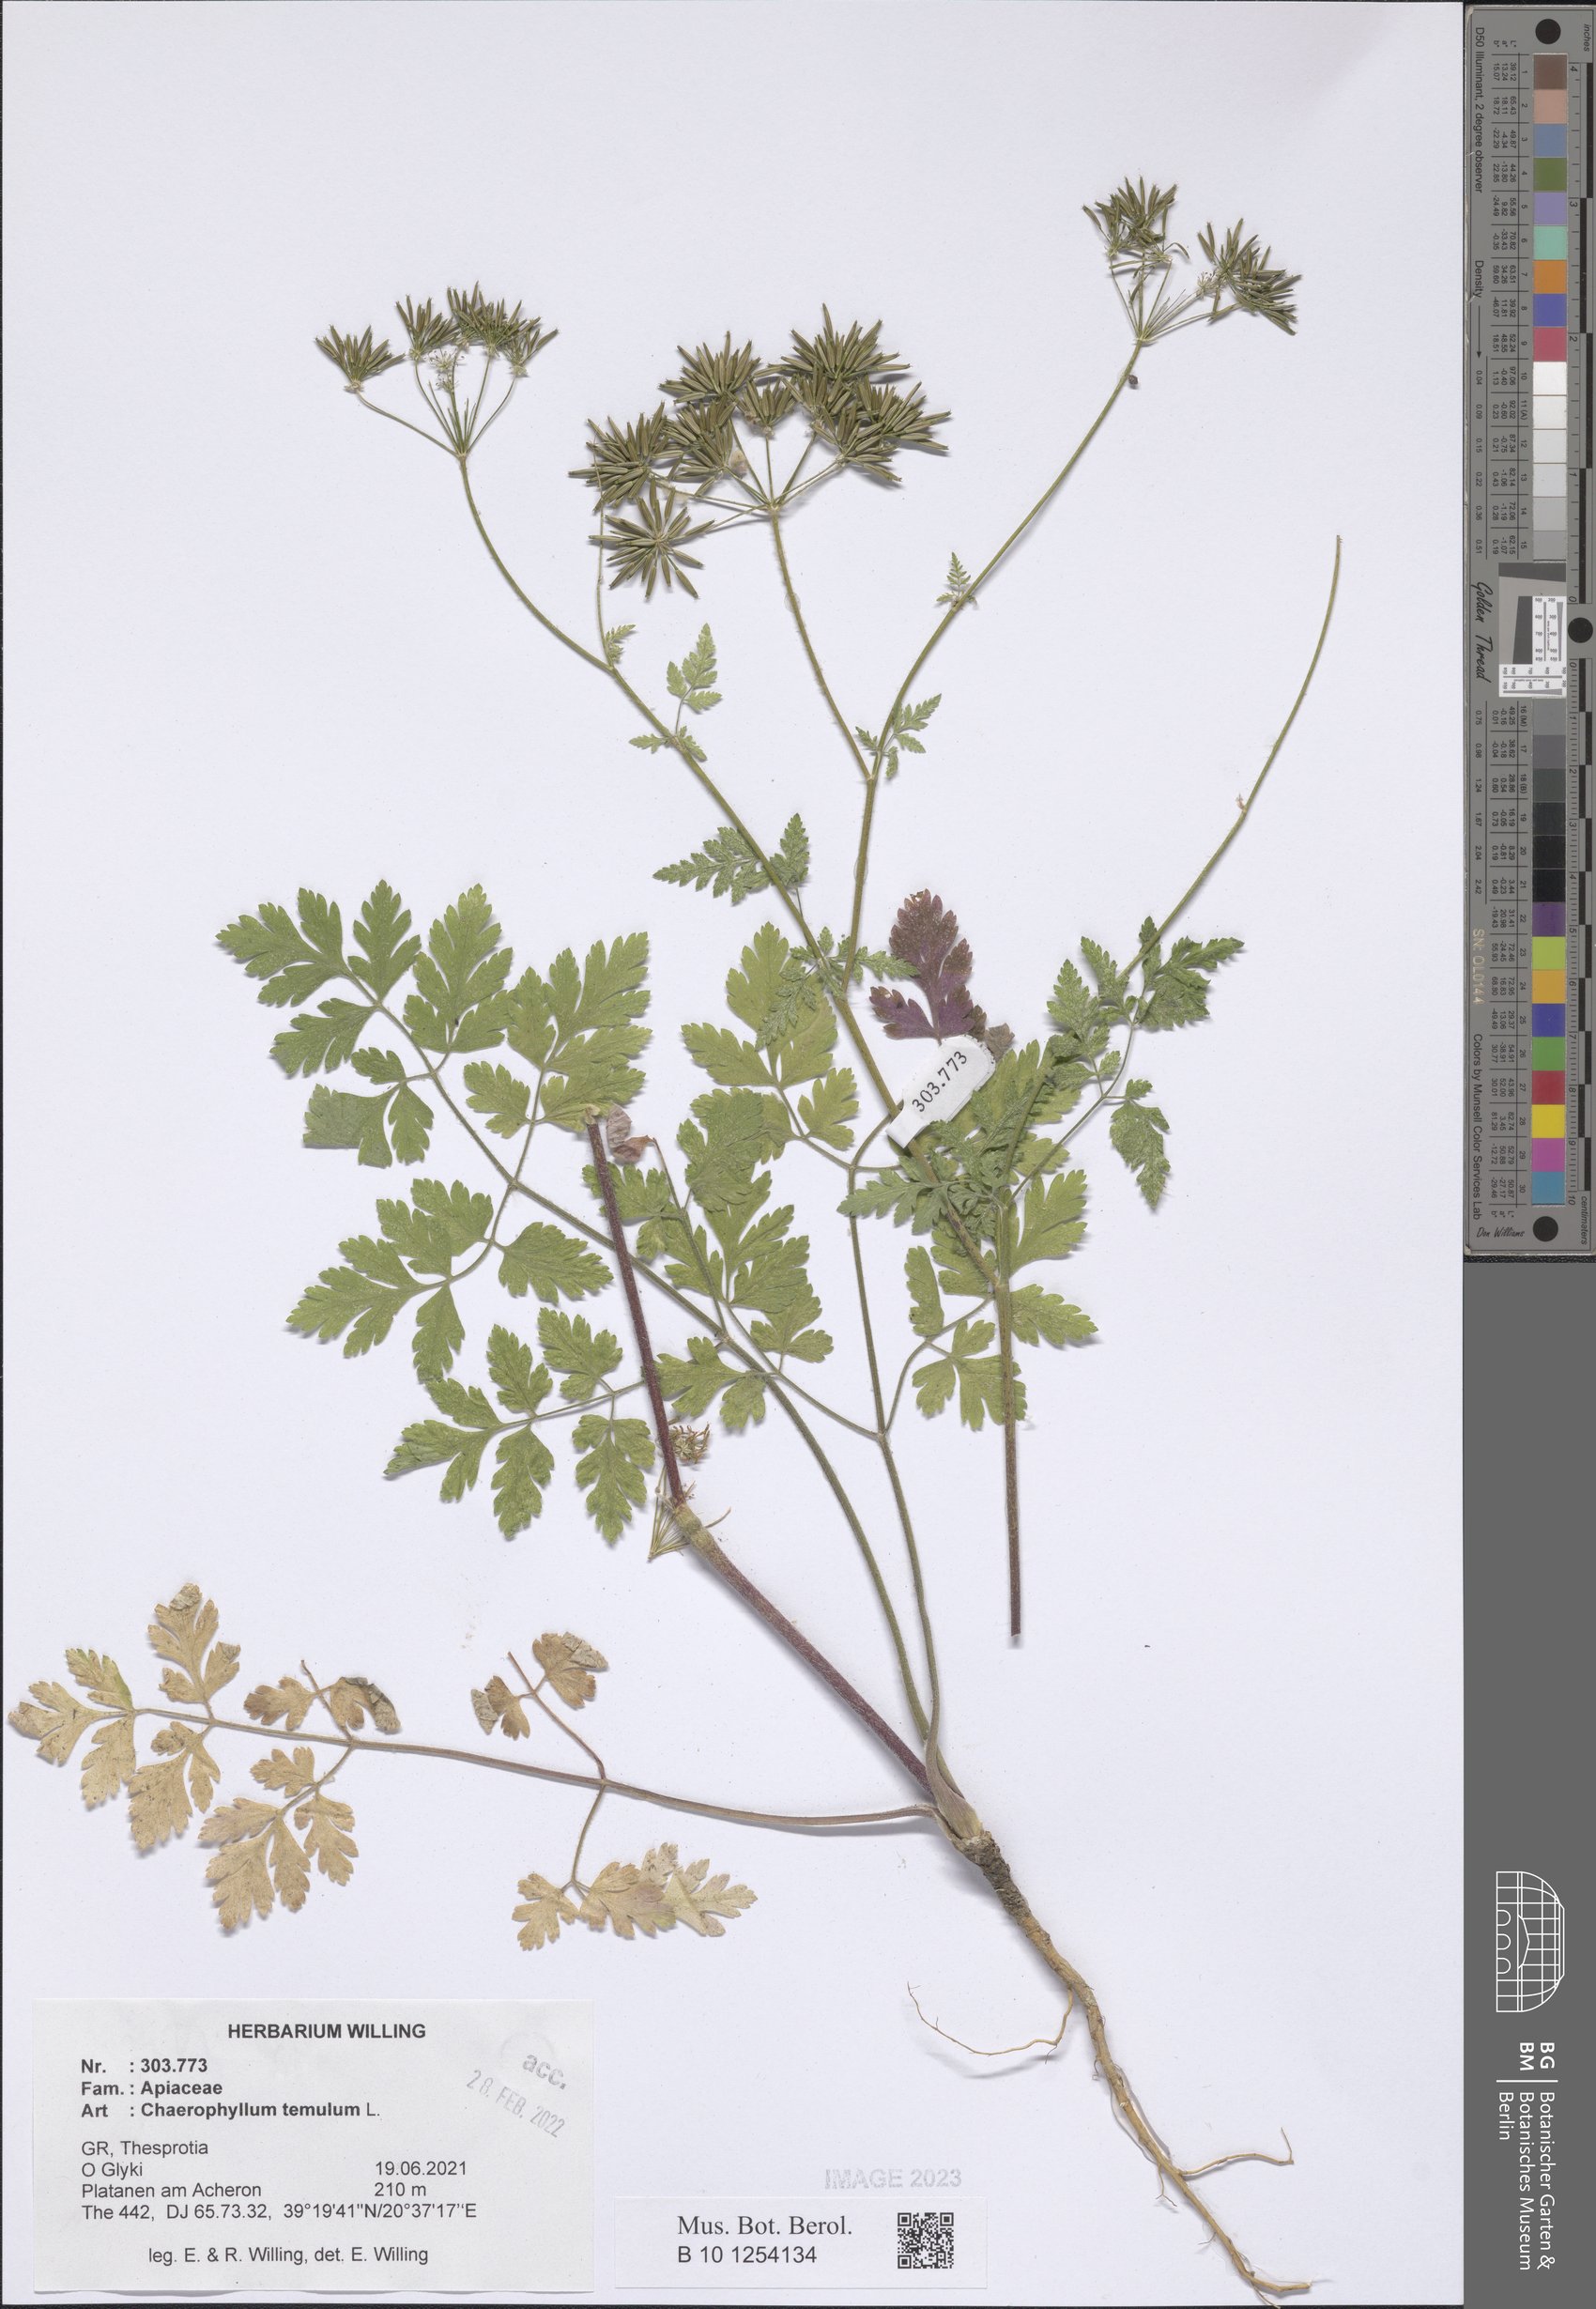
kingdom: Plantae
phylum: Tracheophyta
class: Magnoliopsida
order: Apiales
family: Apiaceae
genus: Chaerophyllum
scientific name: Chaerophyllum temulum
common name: Rough chervil
